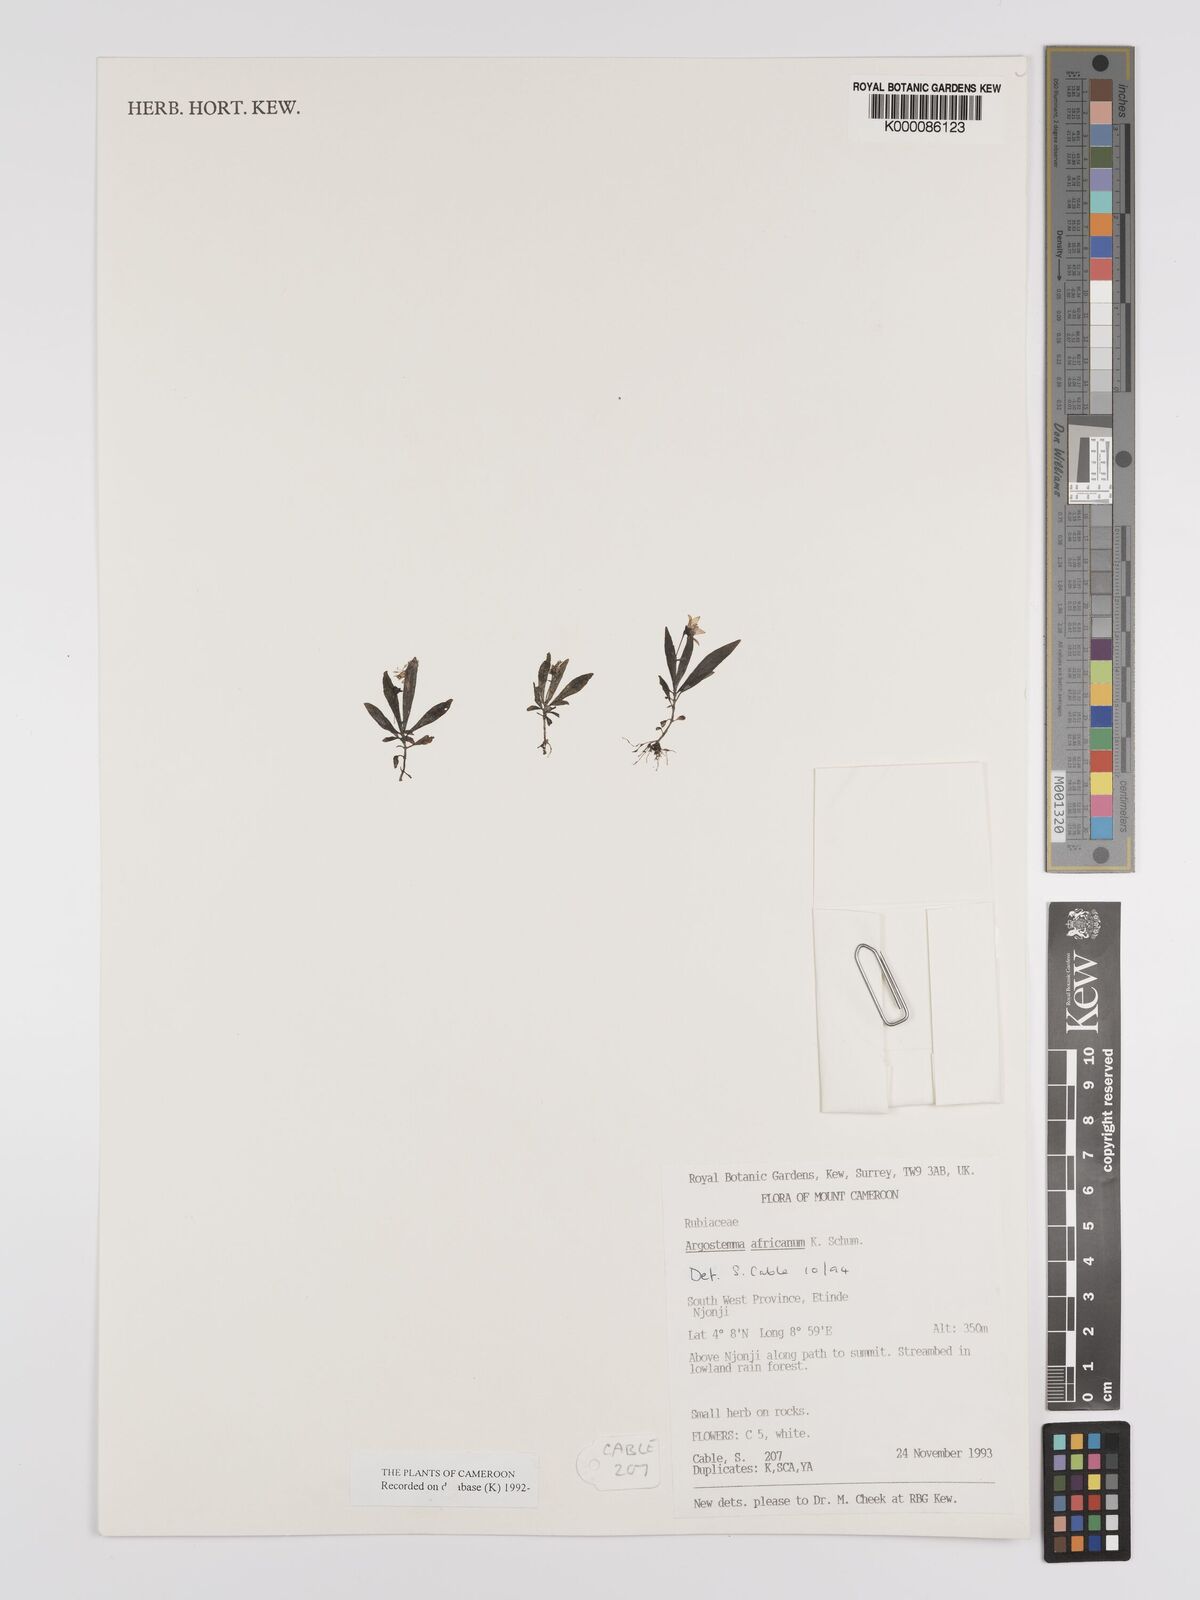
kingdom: Plantae
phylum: Tracheophyta
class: Magnoliopsida
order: Gentianales
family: Rubiaceae
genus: Argostemma
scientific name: Argostemma africanum
